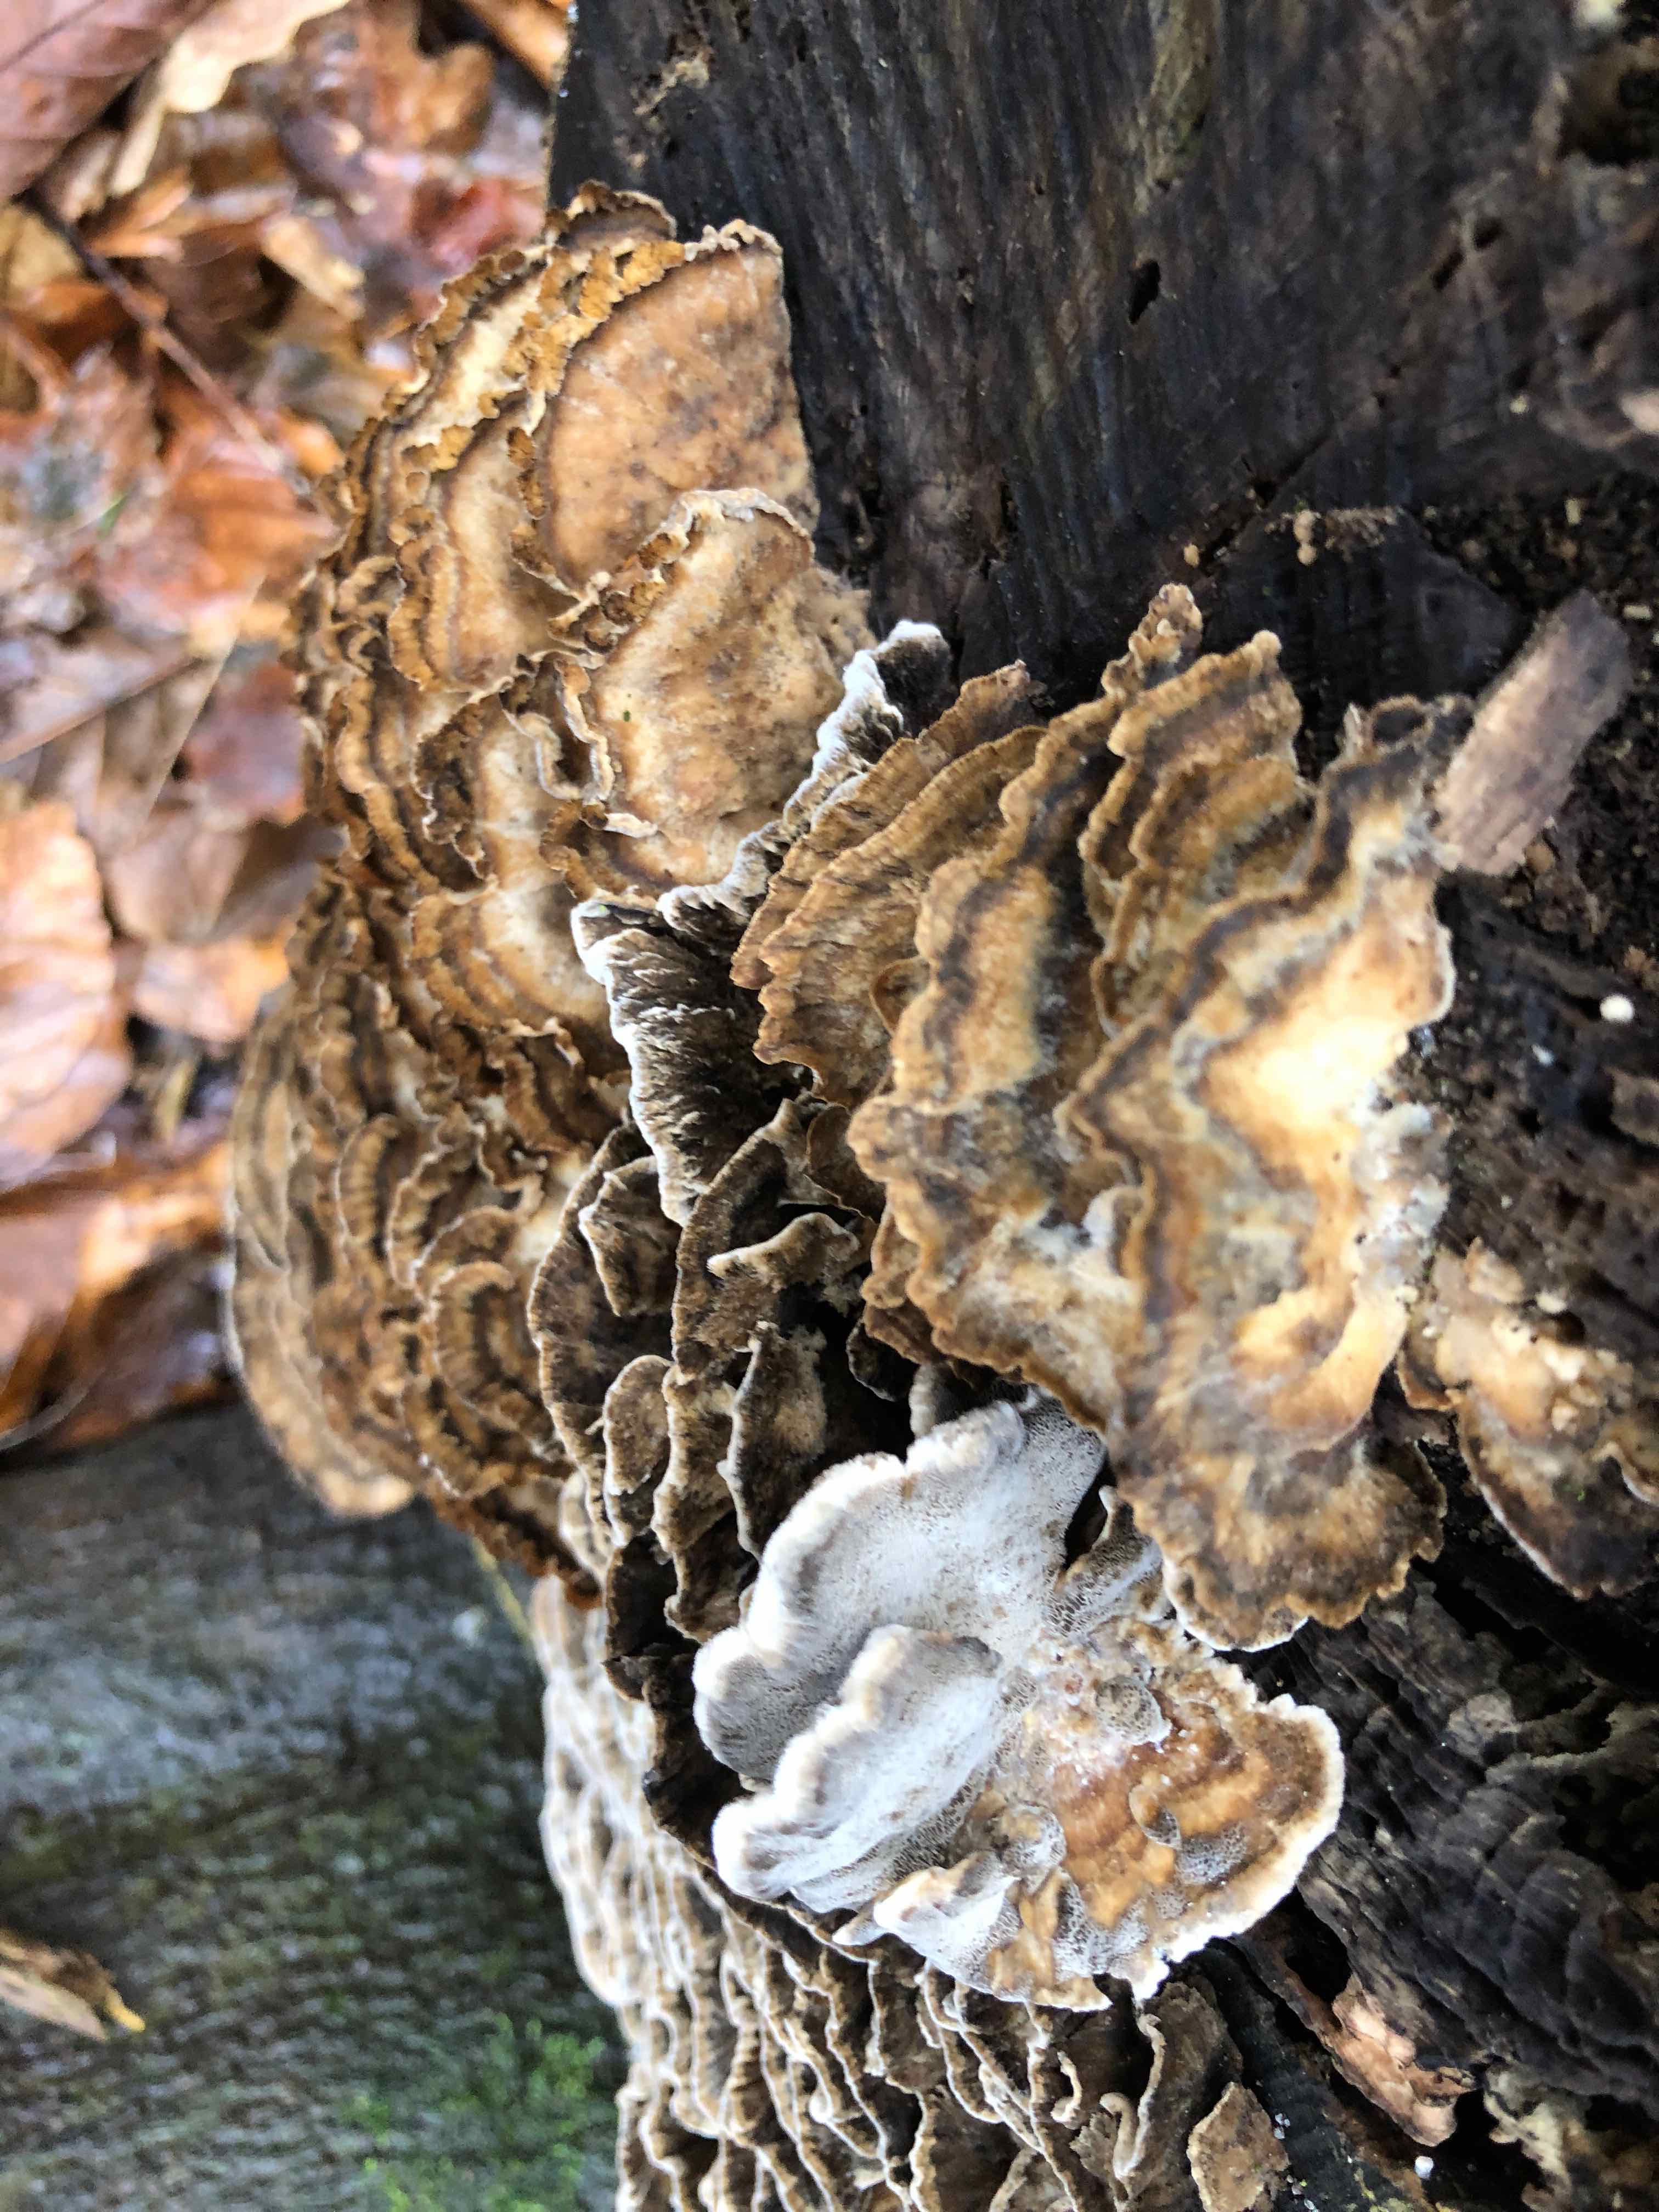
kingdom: Fungi
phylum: Basidiomycota
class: Agaricomycetes
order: Polyporales
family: Phanerochaetaceae
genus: Bjerkandera
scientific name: Bjerkandera adusta
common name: sveden sodporesvamp
